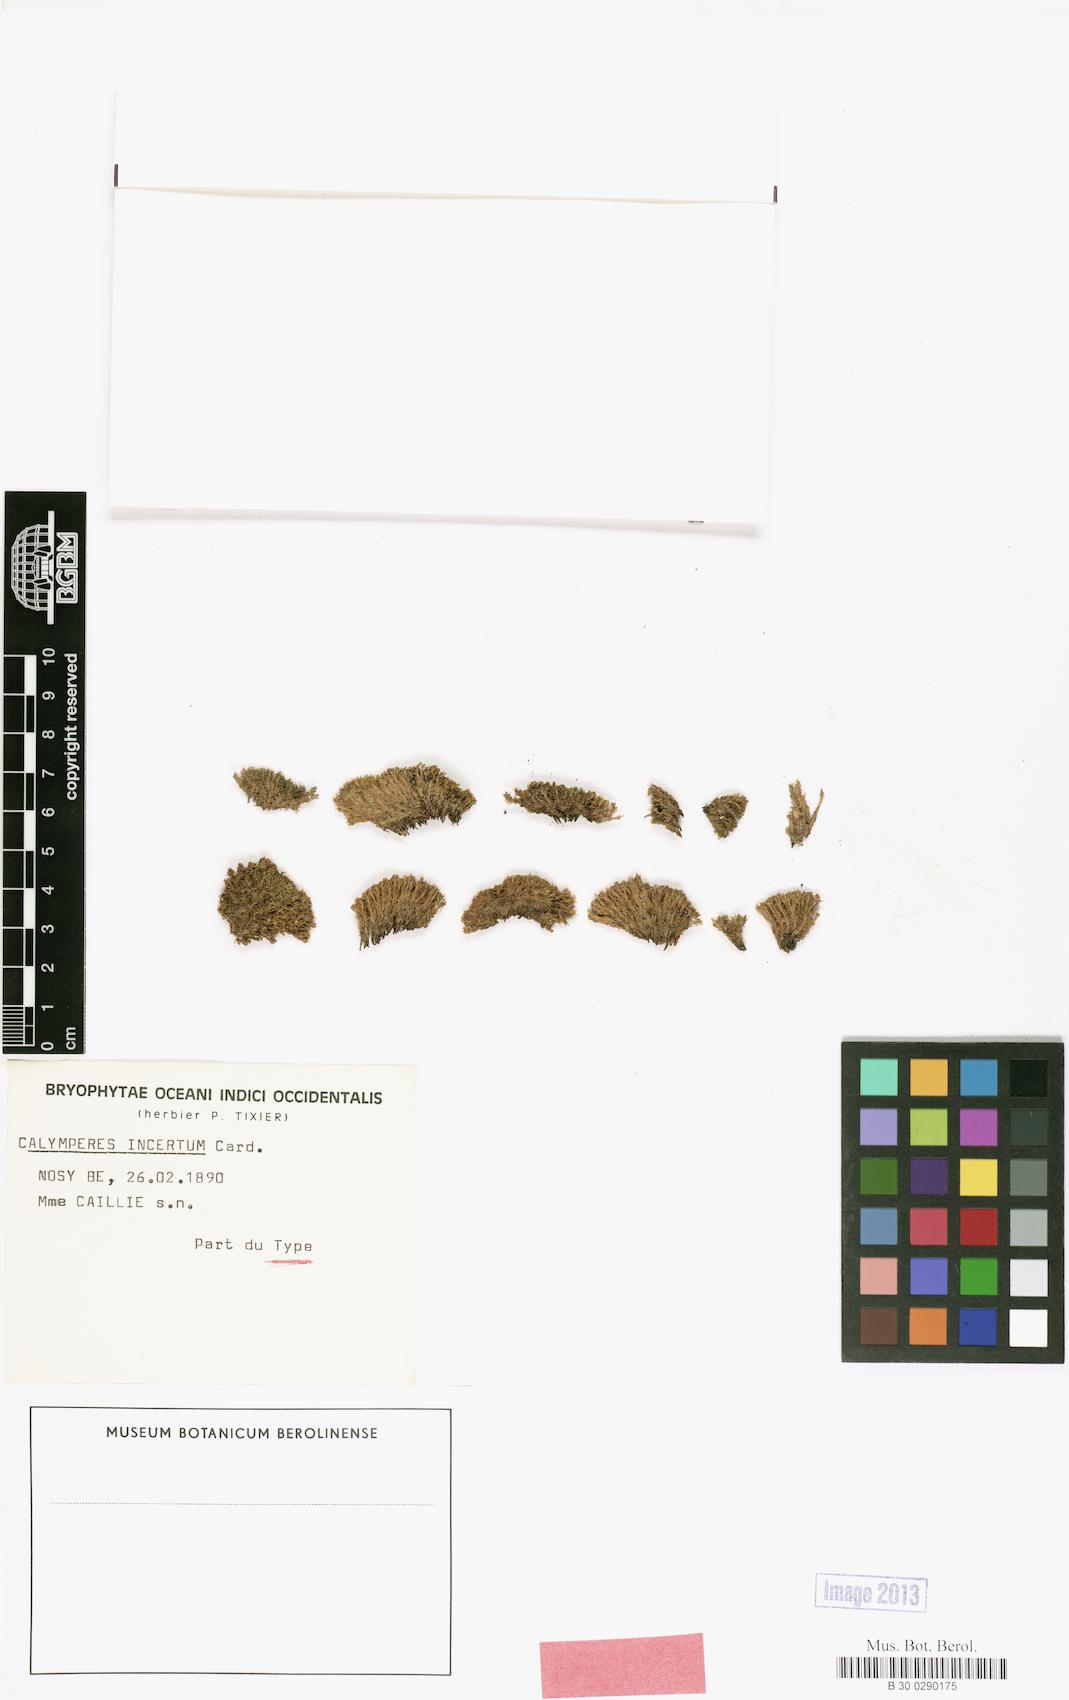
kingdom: Plantae
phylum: Bryophyta
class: Bryopsida
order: Dicranales
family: Calymperaceae
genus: Calymperes
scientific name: Calymperes palisotii
